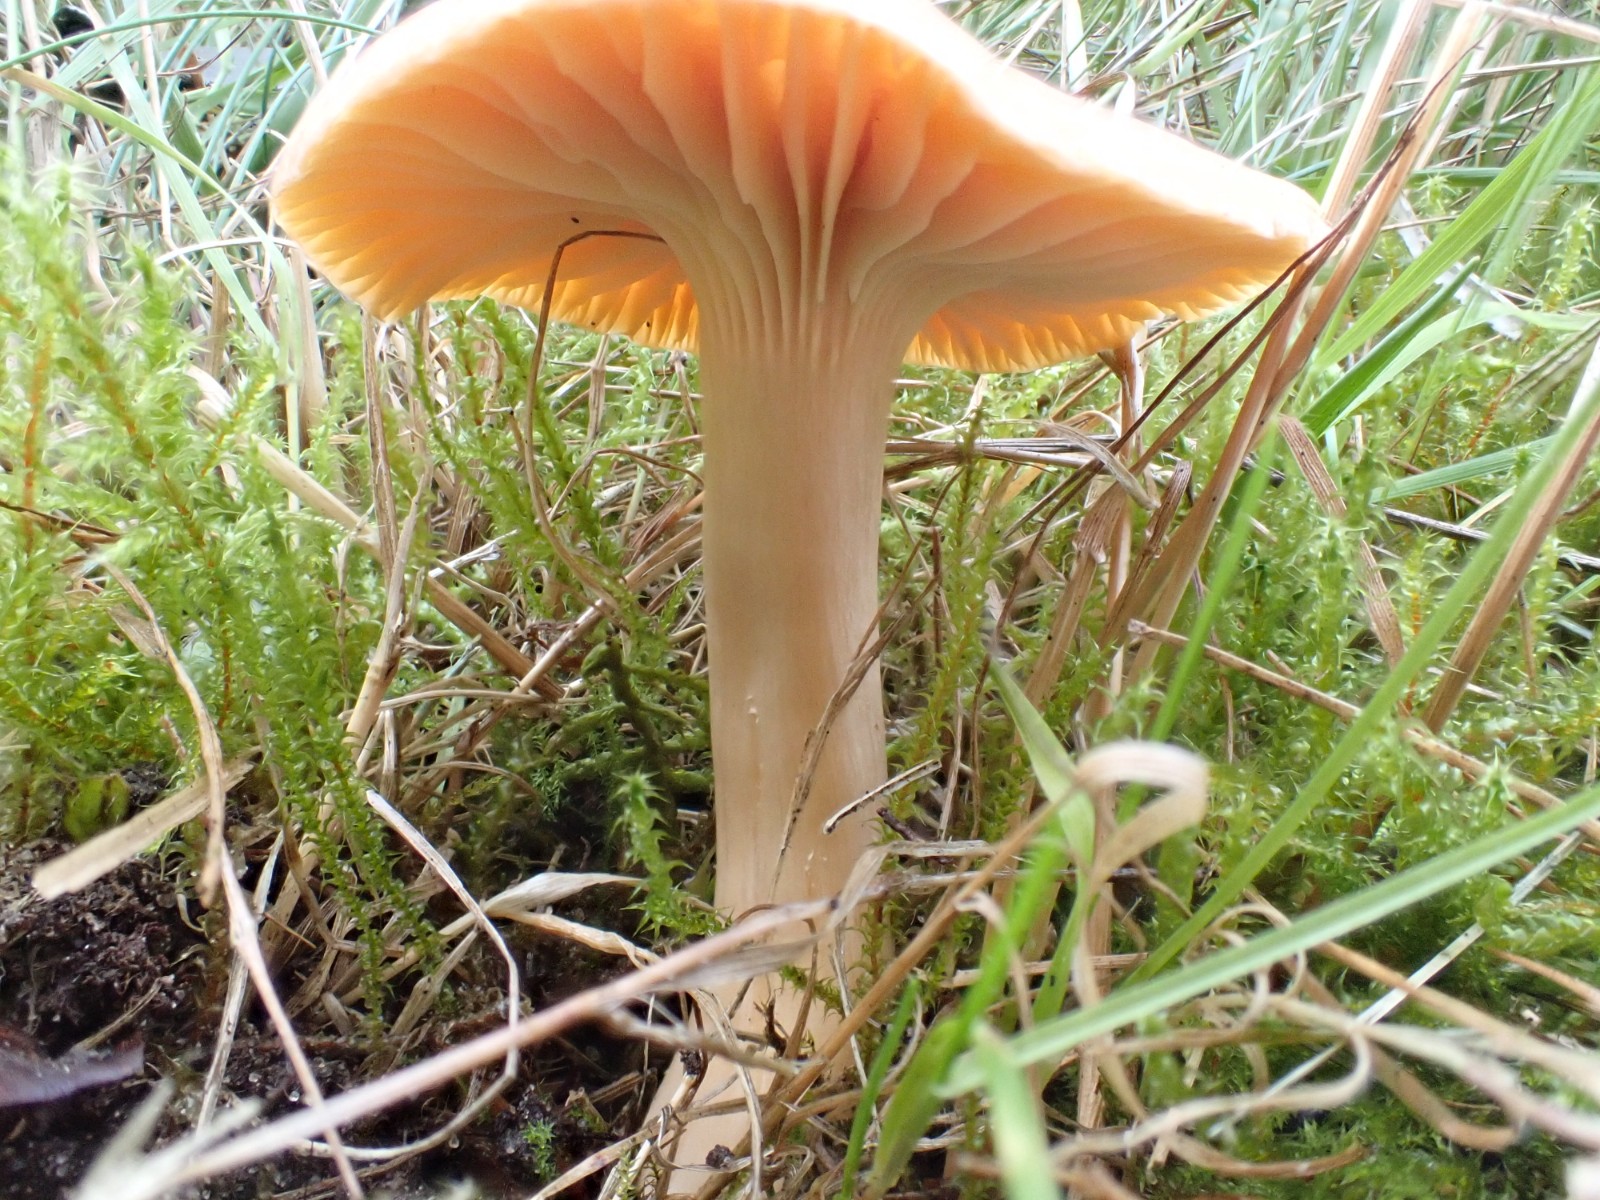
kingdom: Fungi
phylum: Basidiomycota
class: Agaricomycetes
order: Agaricales
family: Hygrophoraceae
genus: Cuphophyllus
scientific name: Cuphophyllus pratensis
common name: eng-vokshat
